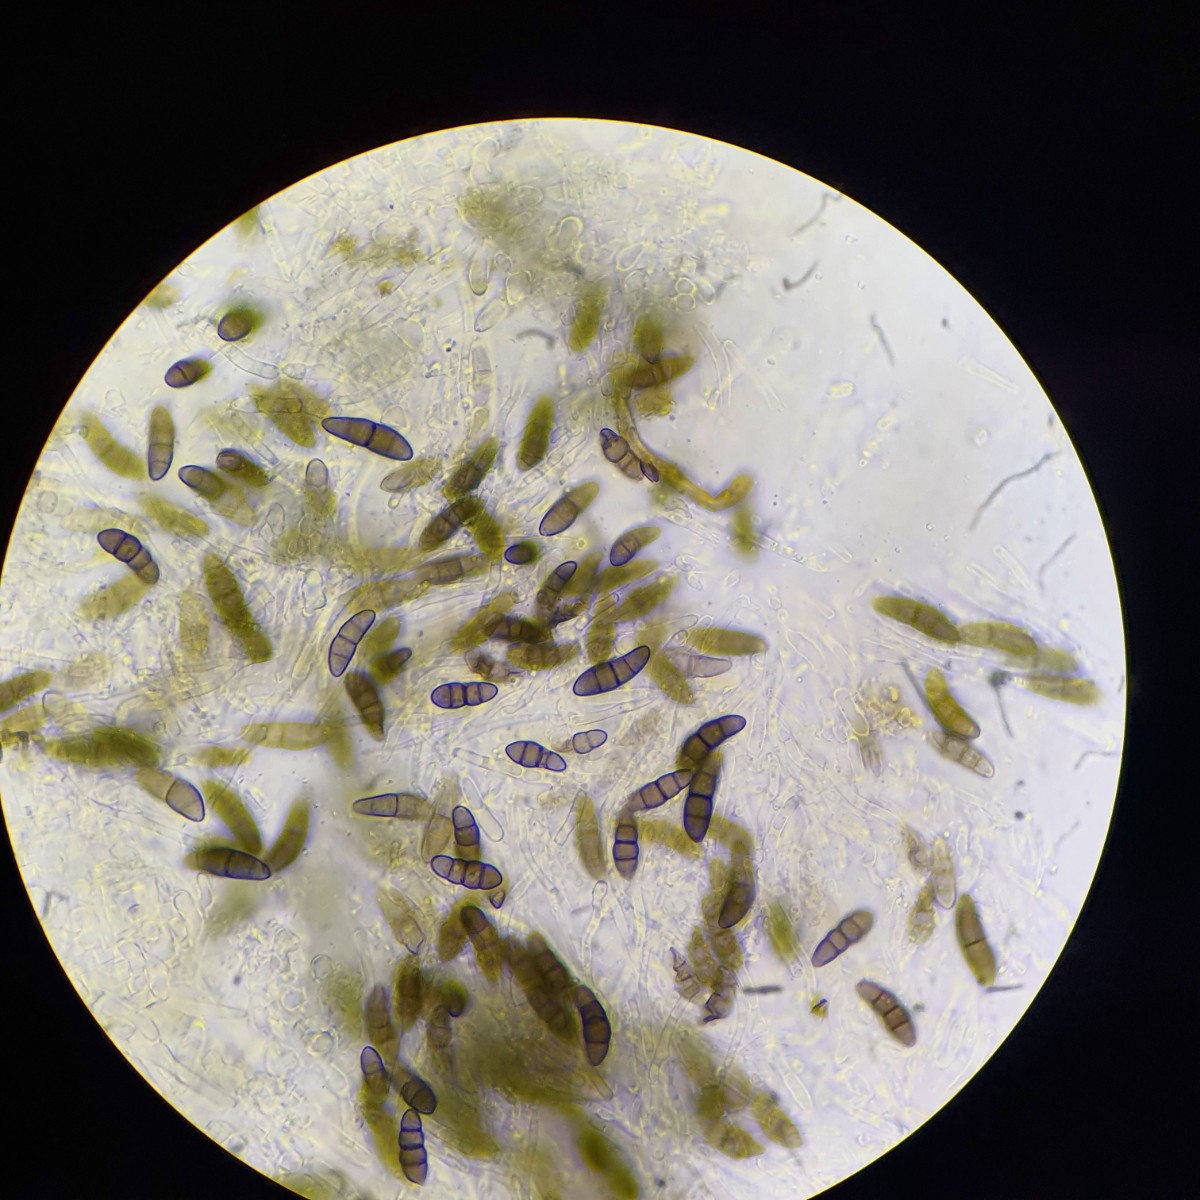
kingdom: Fungi
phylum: Ascomycota
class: Dothideomycetes
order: Pleosporales
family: Didymosphaeriaceae
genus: Kalmusia
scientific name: Kalmusia sarothamni
